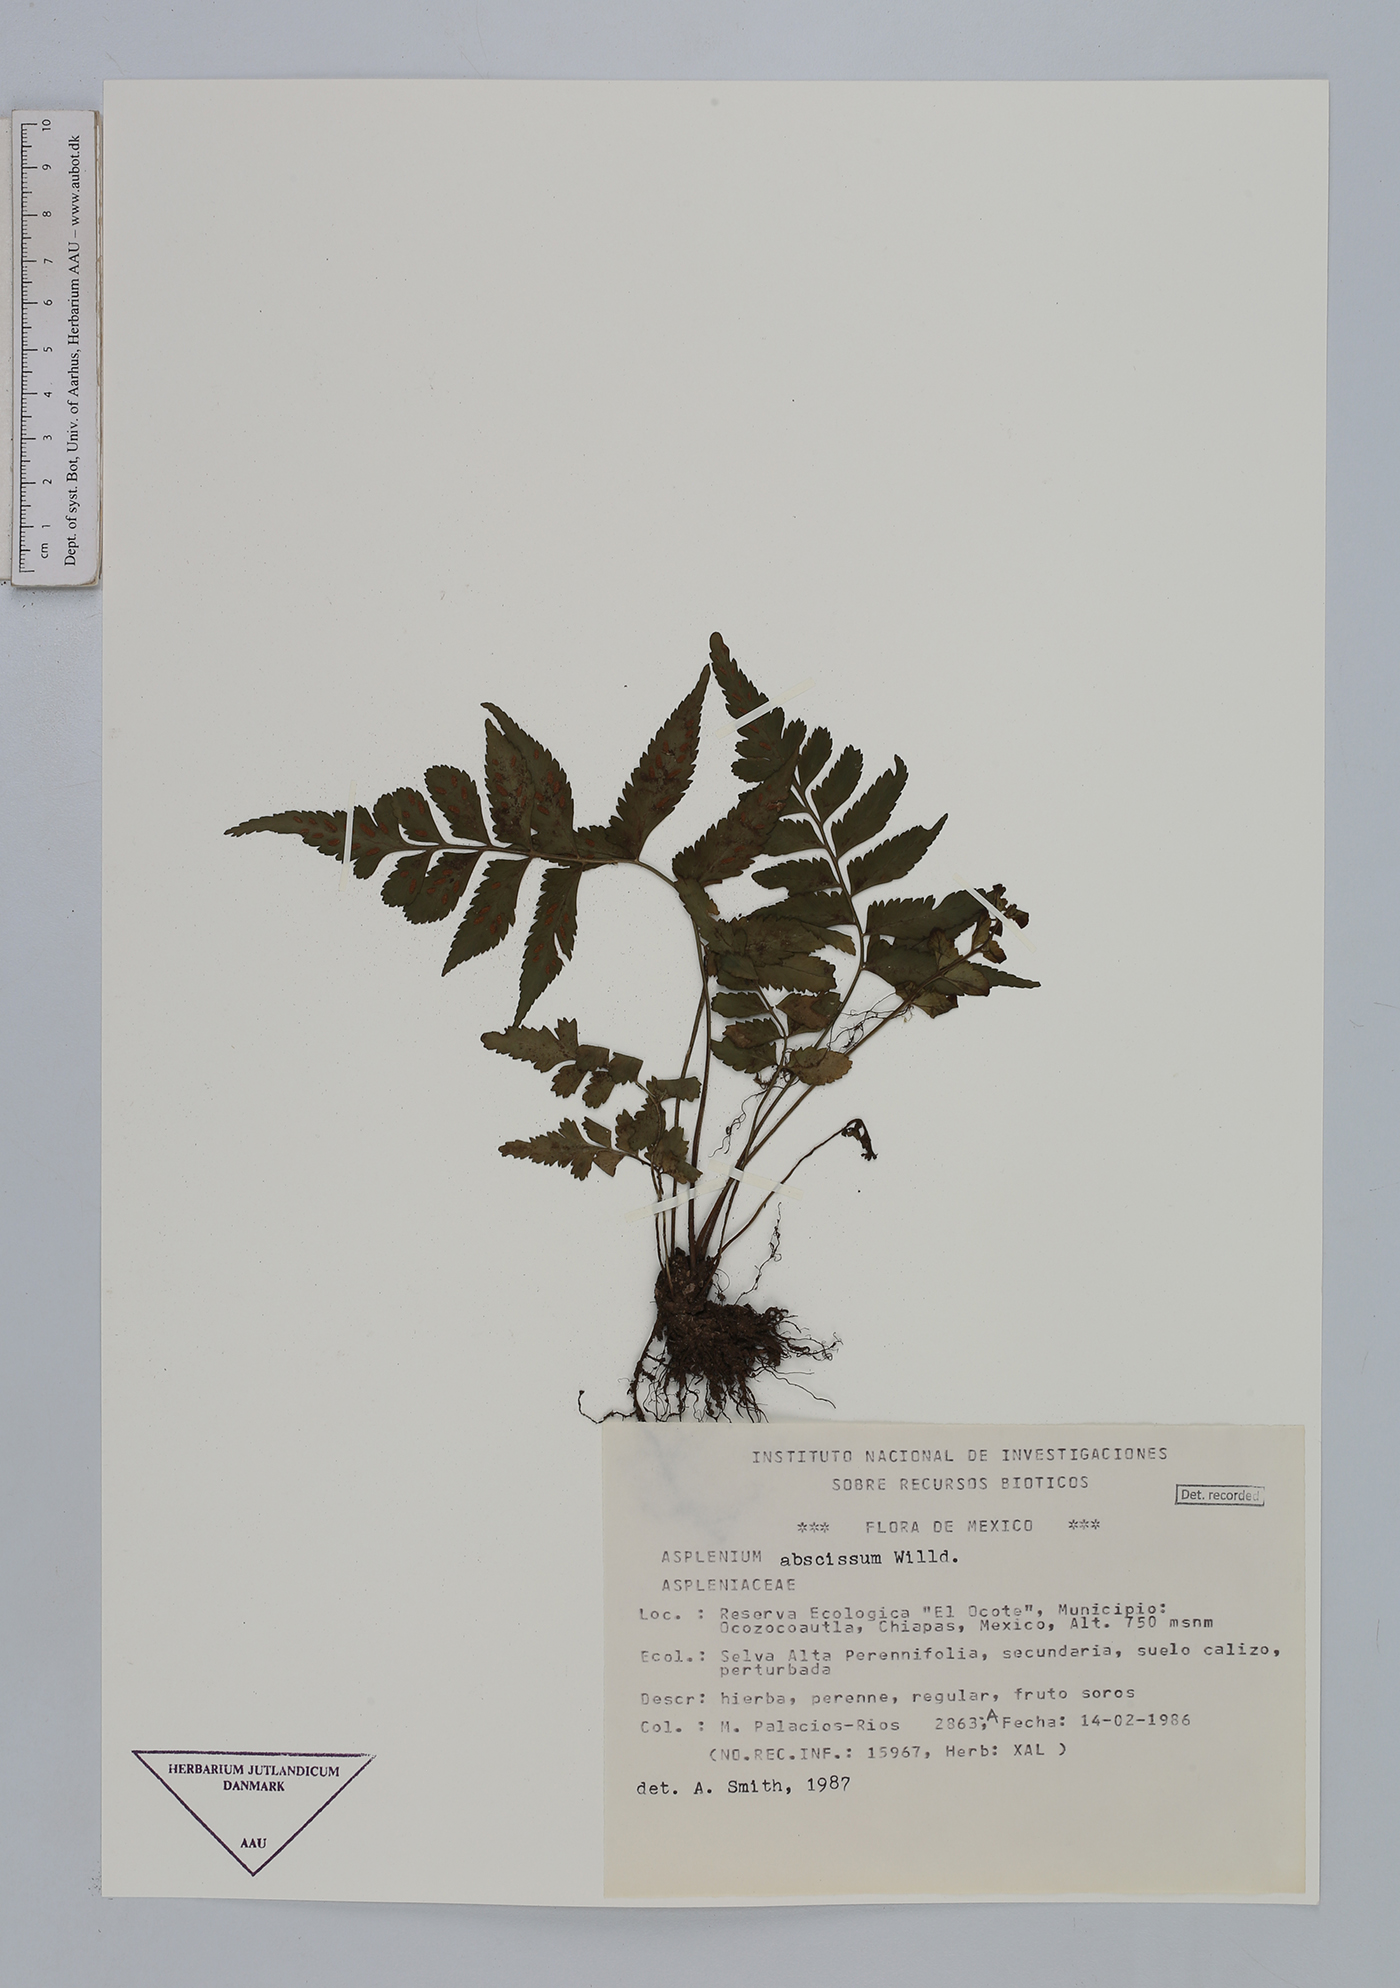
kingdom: Plantae
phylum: Tracheophyta
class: Polypodiopsida
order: Polypodiales
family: Aspleniaceae
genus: Asplenium
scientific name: Asplenium abscissum
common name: Cutleaf spleenwort
